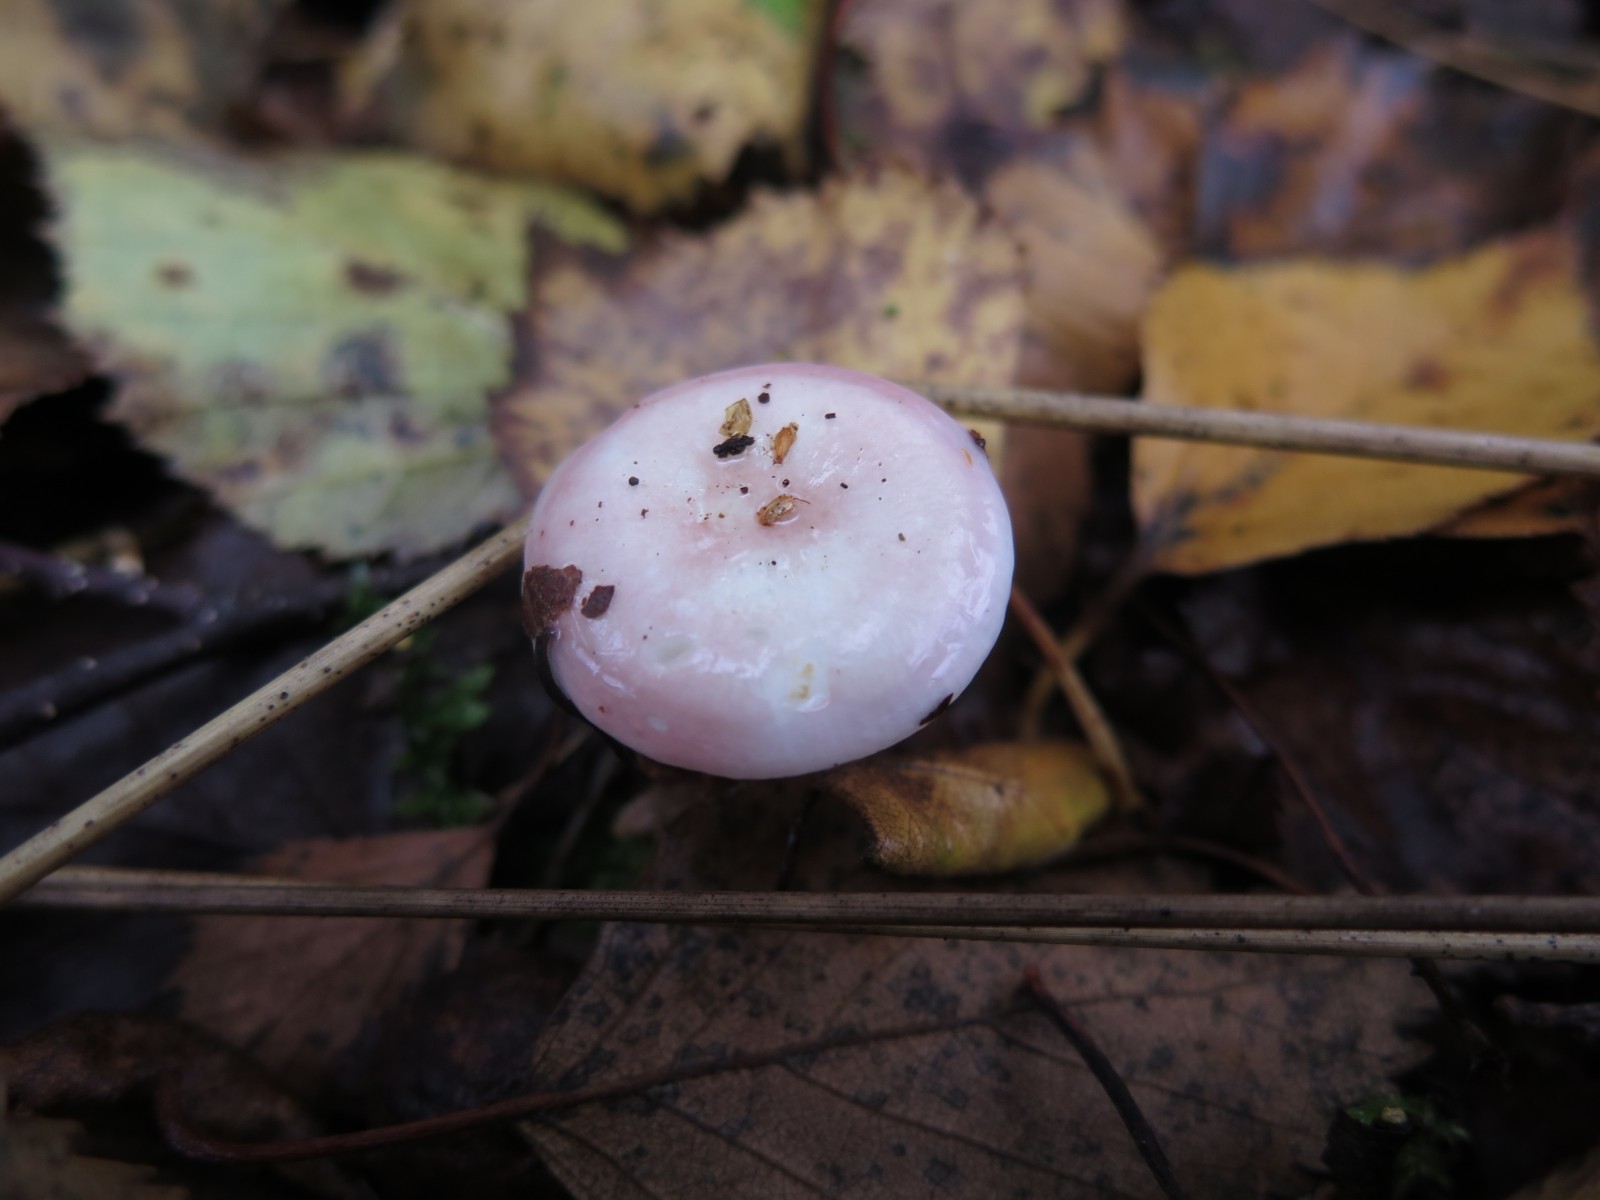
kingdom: Fungi
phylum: Basidiomycota
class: Agaricomycetes
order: Russulales
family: Russulaceae
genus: Russula
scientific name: Russula
